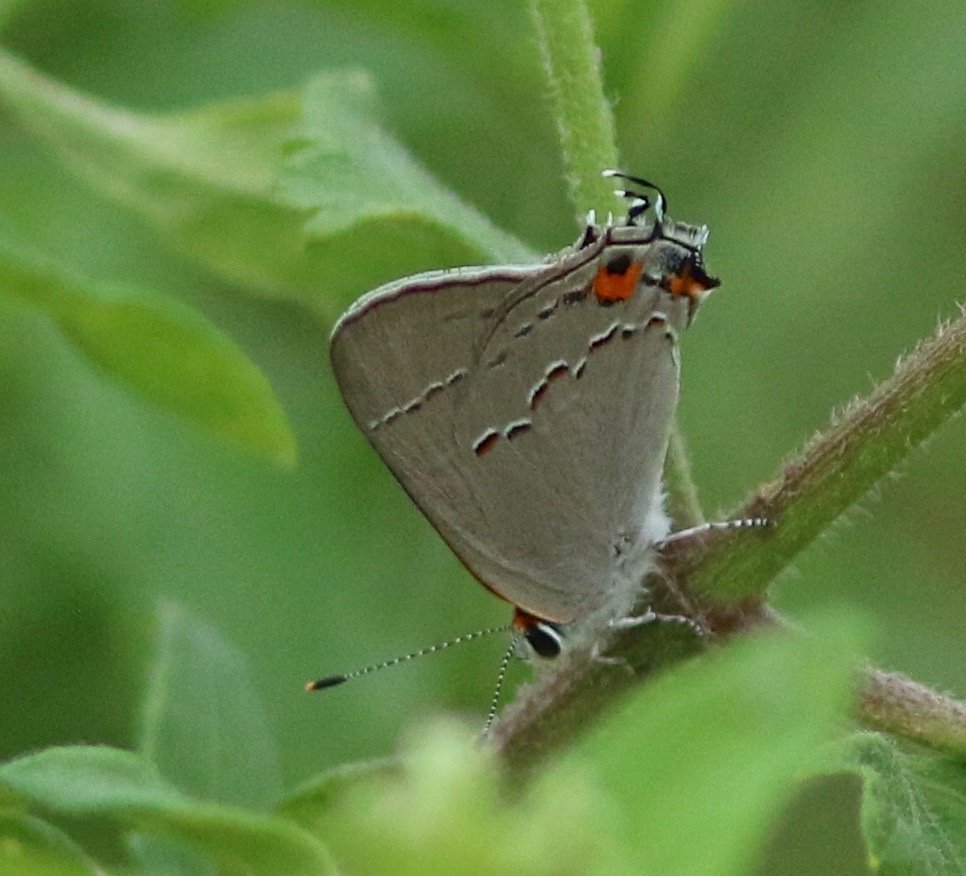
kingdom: Animalia
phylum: Arthropoda
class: Insecta
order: Lepidoptera
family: Lycaenidae
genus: Strymon
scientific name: Strymon melinus
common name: Gray Hairstreak
